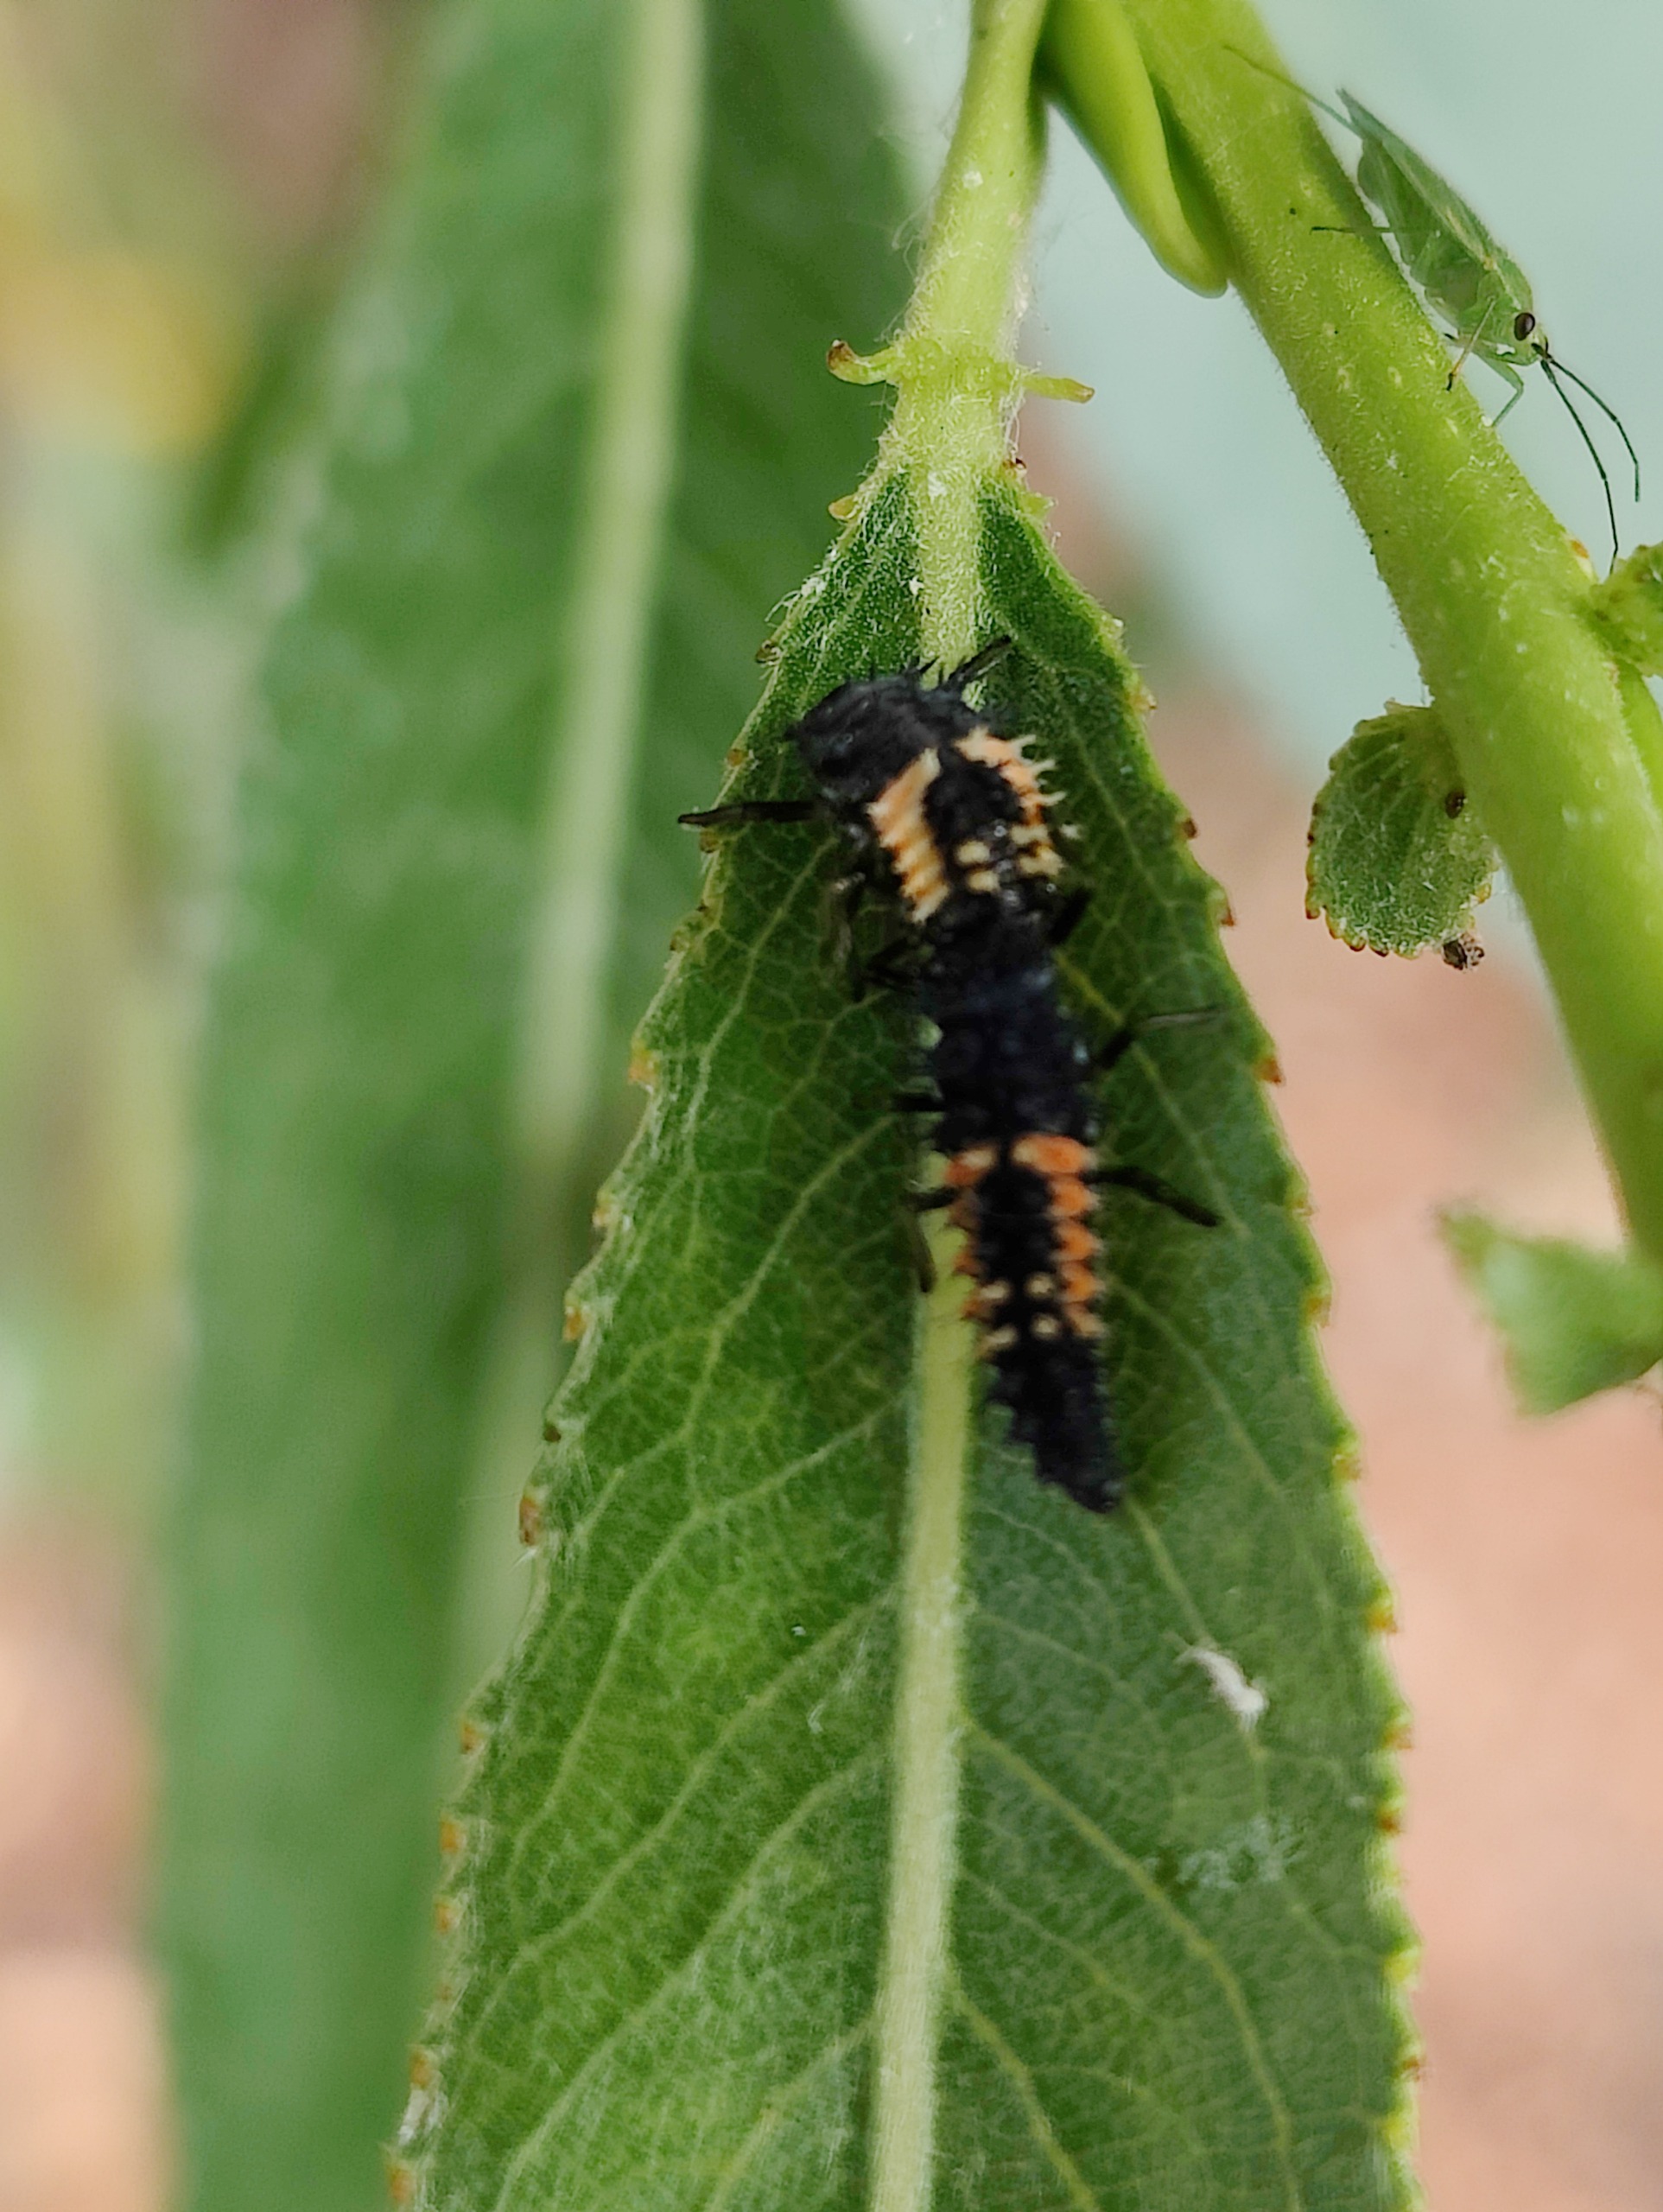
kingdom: Animalia
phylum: Arthropoda
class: Insecta
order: Coleoptera
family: Coccinellidae
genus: Harmonia
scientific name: Harmonia axyridis
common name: Harlekinmariehøne
